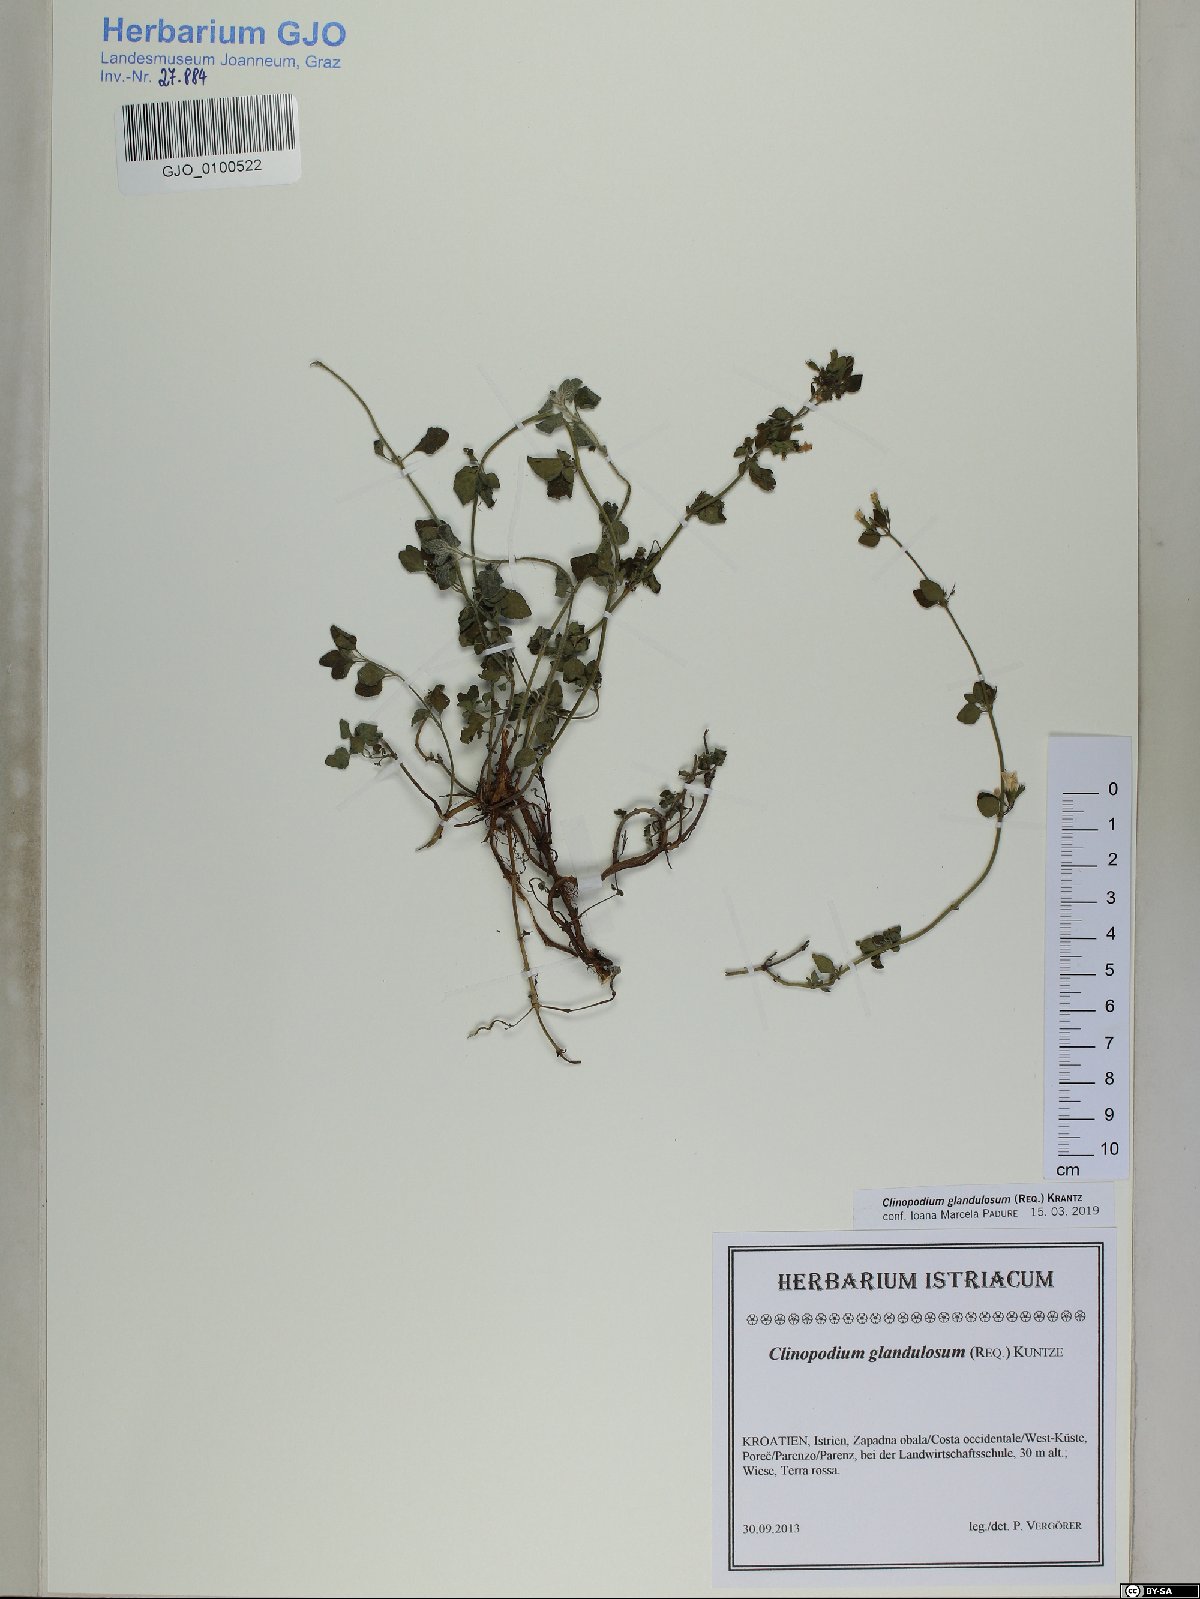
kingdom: Plantae
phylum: Tracheophyta
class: Magnoliopsida
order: Lamiales
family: Lamiaceae
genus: Clinopodium
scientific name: Clinopodium nepeta
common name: Lesser calamint
